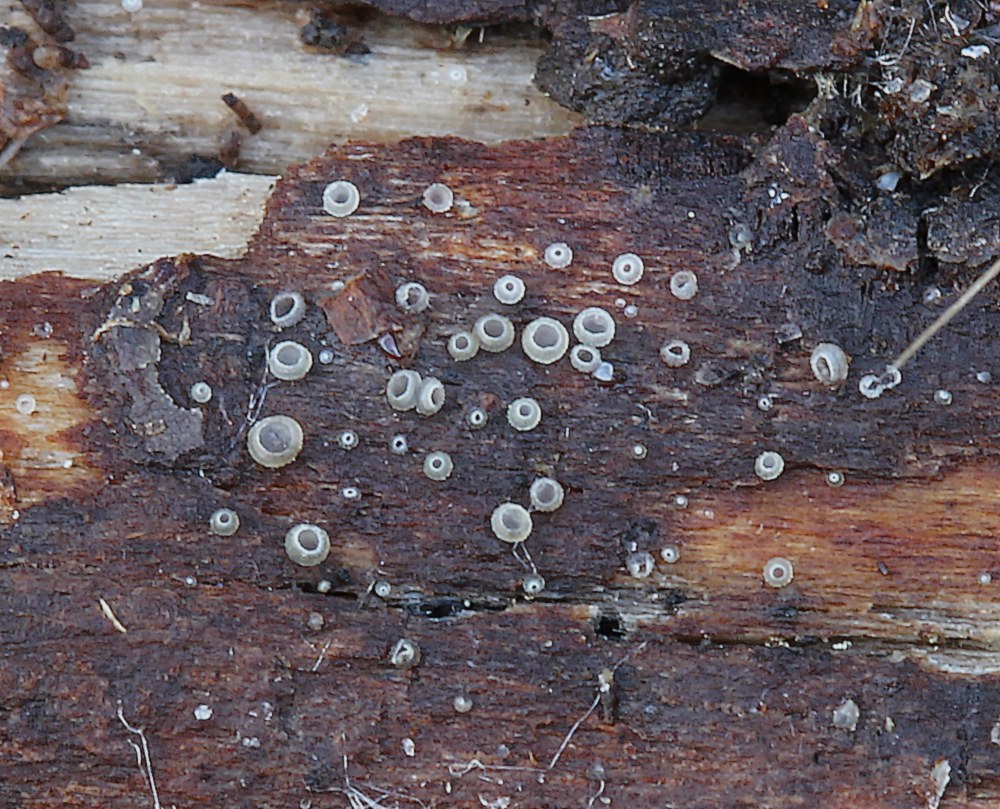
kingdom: Fungi
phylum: Ascomycota
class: Leotiomycetes
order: Helotiales
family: Hyaloscyphaceae
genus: Hyalopeziza
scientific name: Hyalopeziza millepunctata
